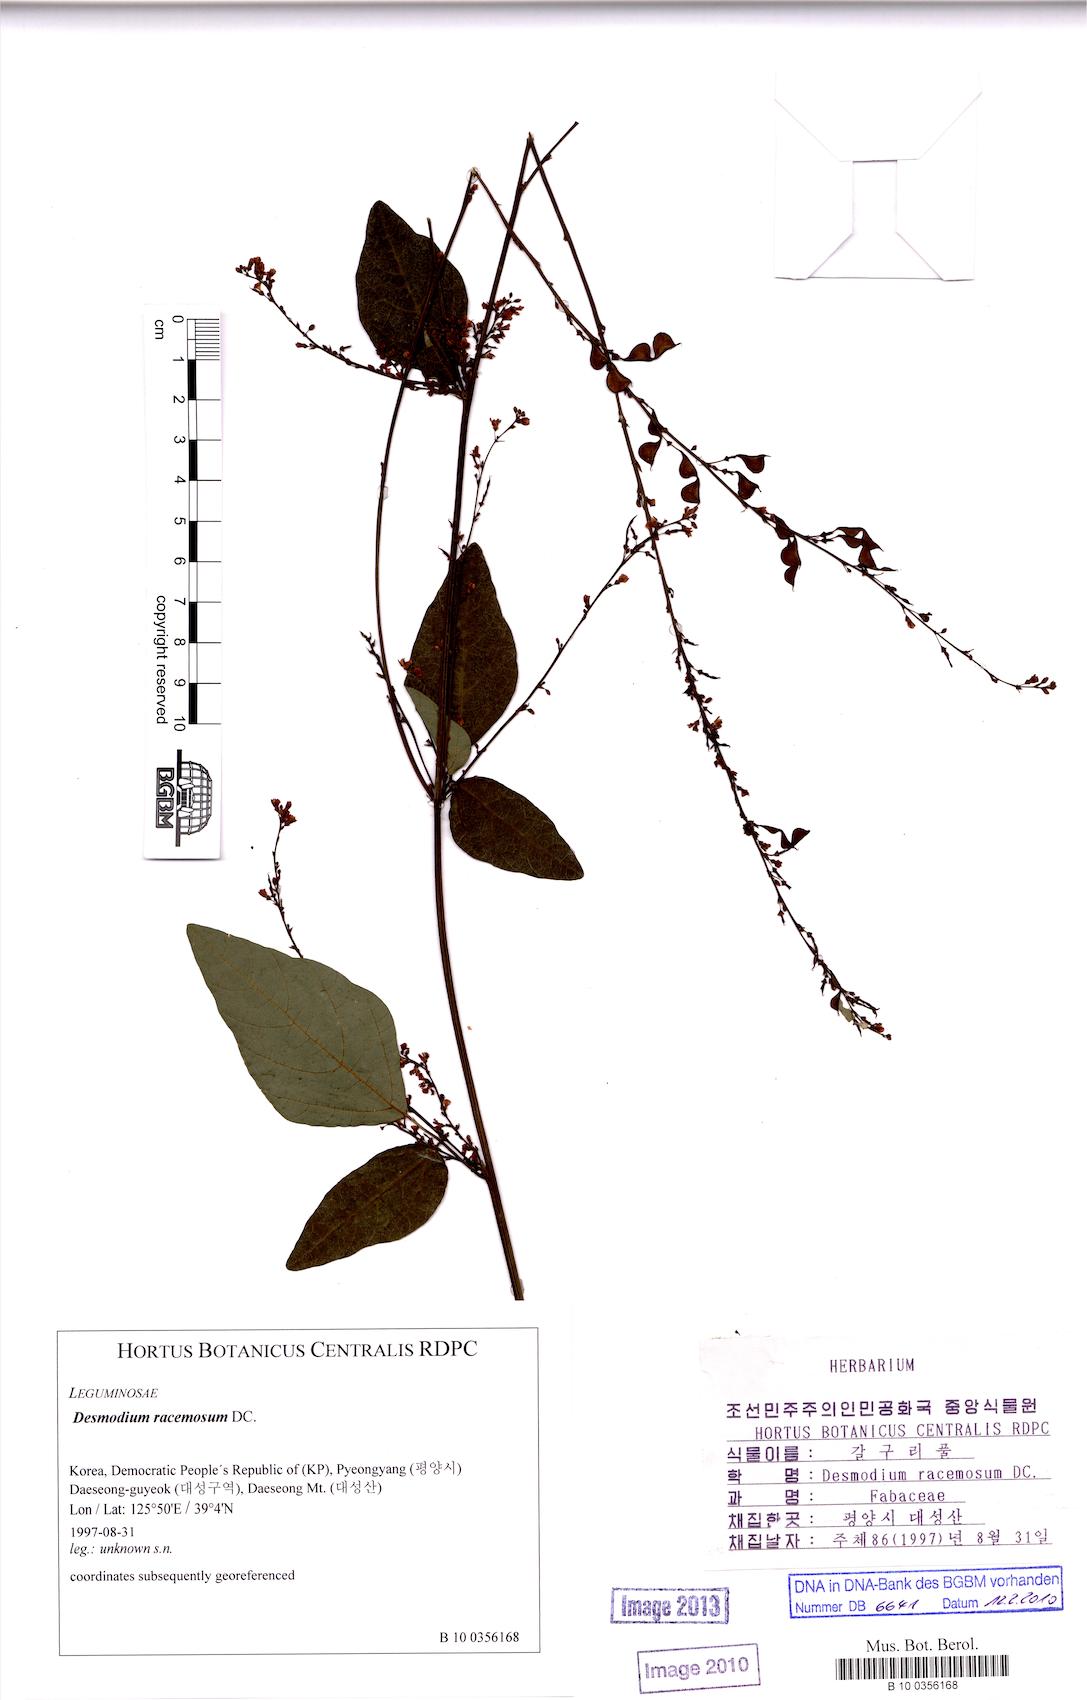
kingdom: Plantae
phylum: Tracheophyta
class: Magnoliopsida
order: Fabales
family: Fabaceae
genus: Hylodesmum
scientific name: Hylodesmum podocarpum
